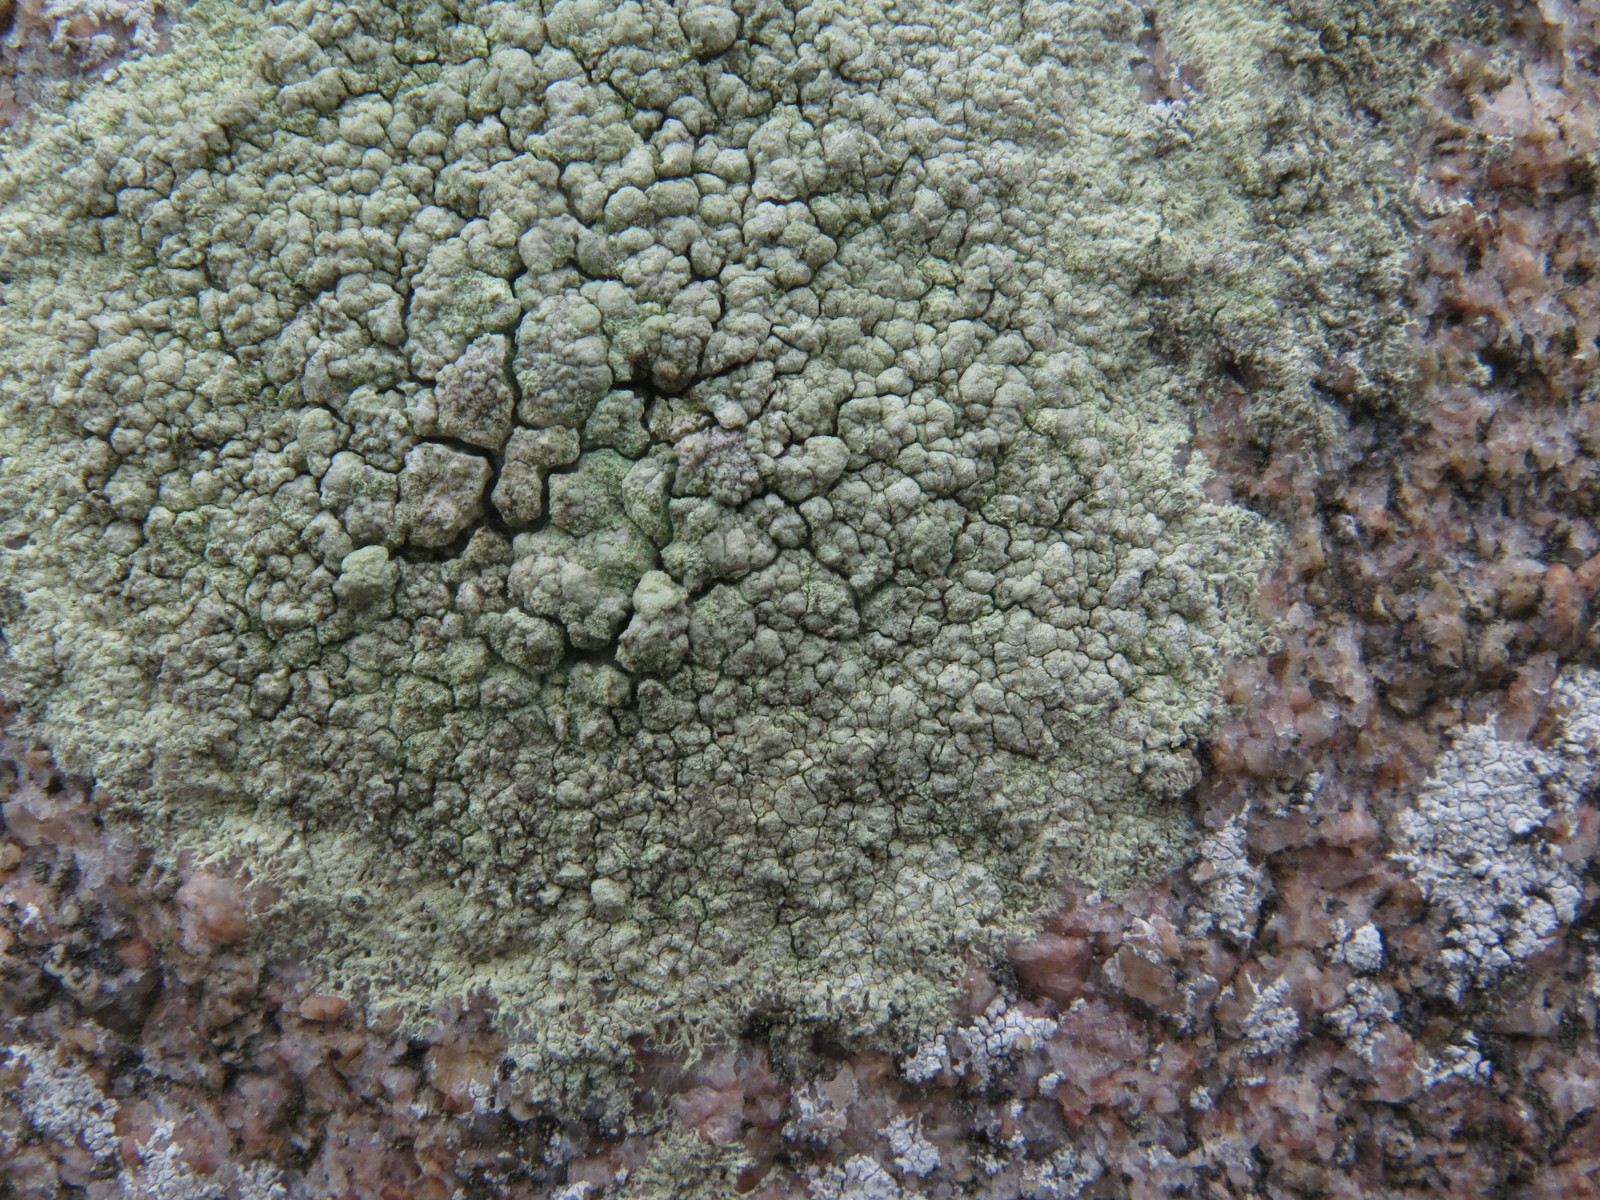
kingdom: Fungi
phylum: Ascomycota
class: Lecanoromycetes
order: Lecanorales
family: Lecanoraceae
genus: Lecanora
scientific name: Lecanora orosthea
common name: grønskurvet kantskivelav
